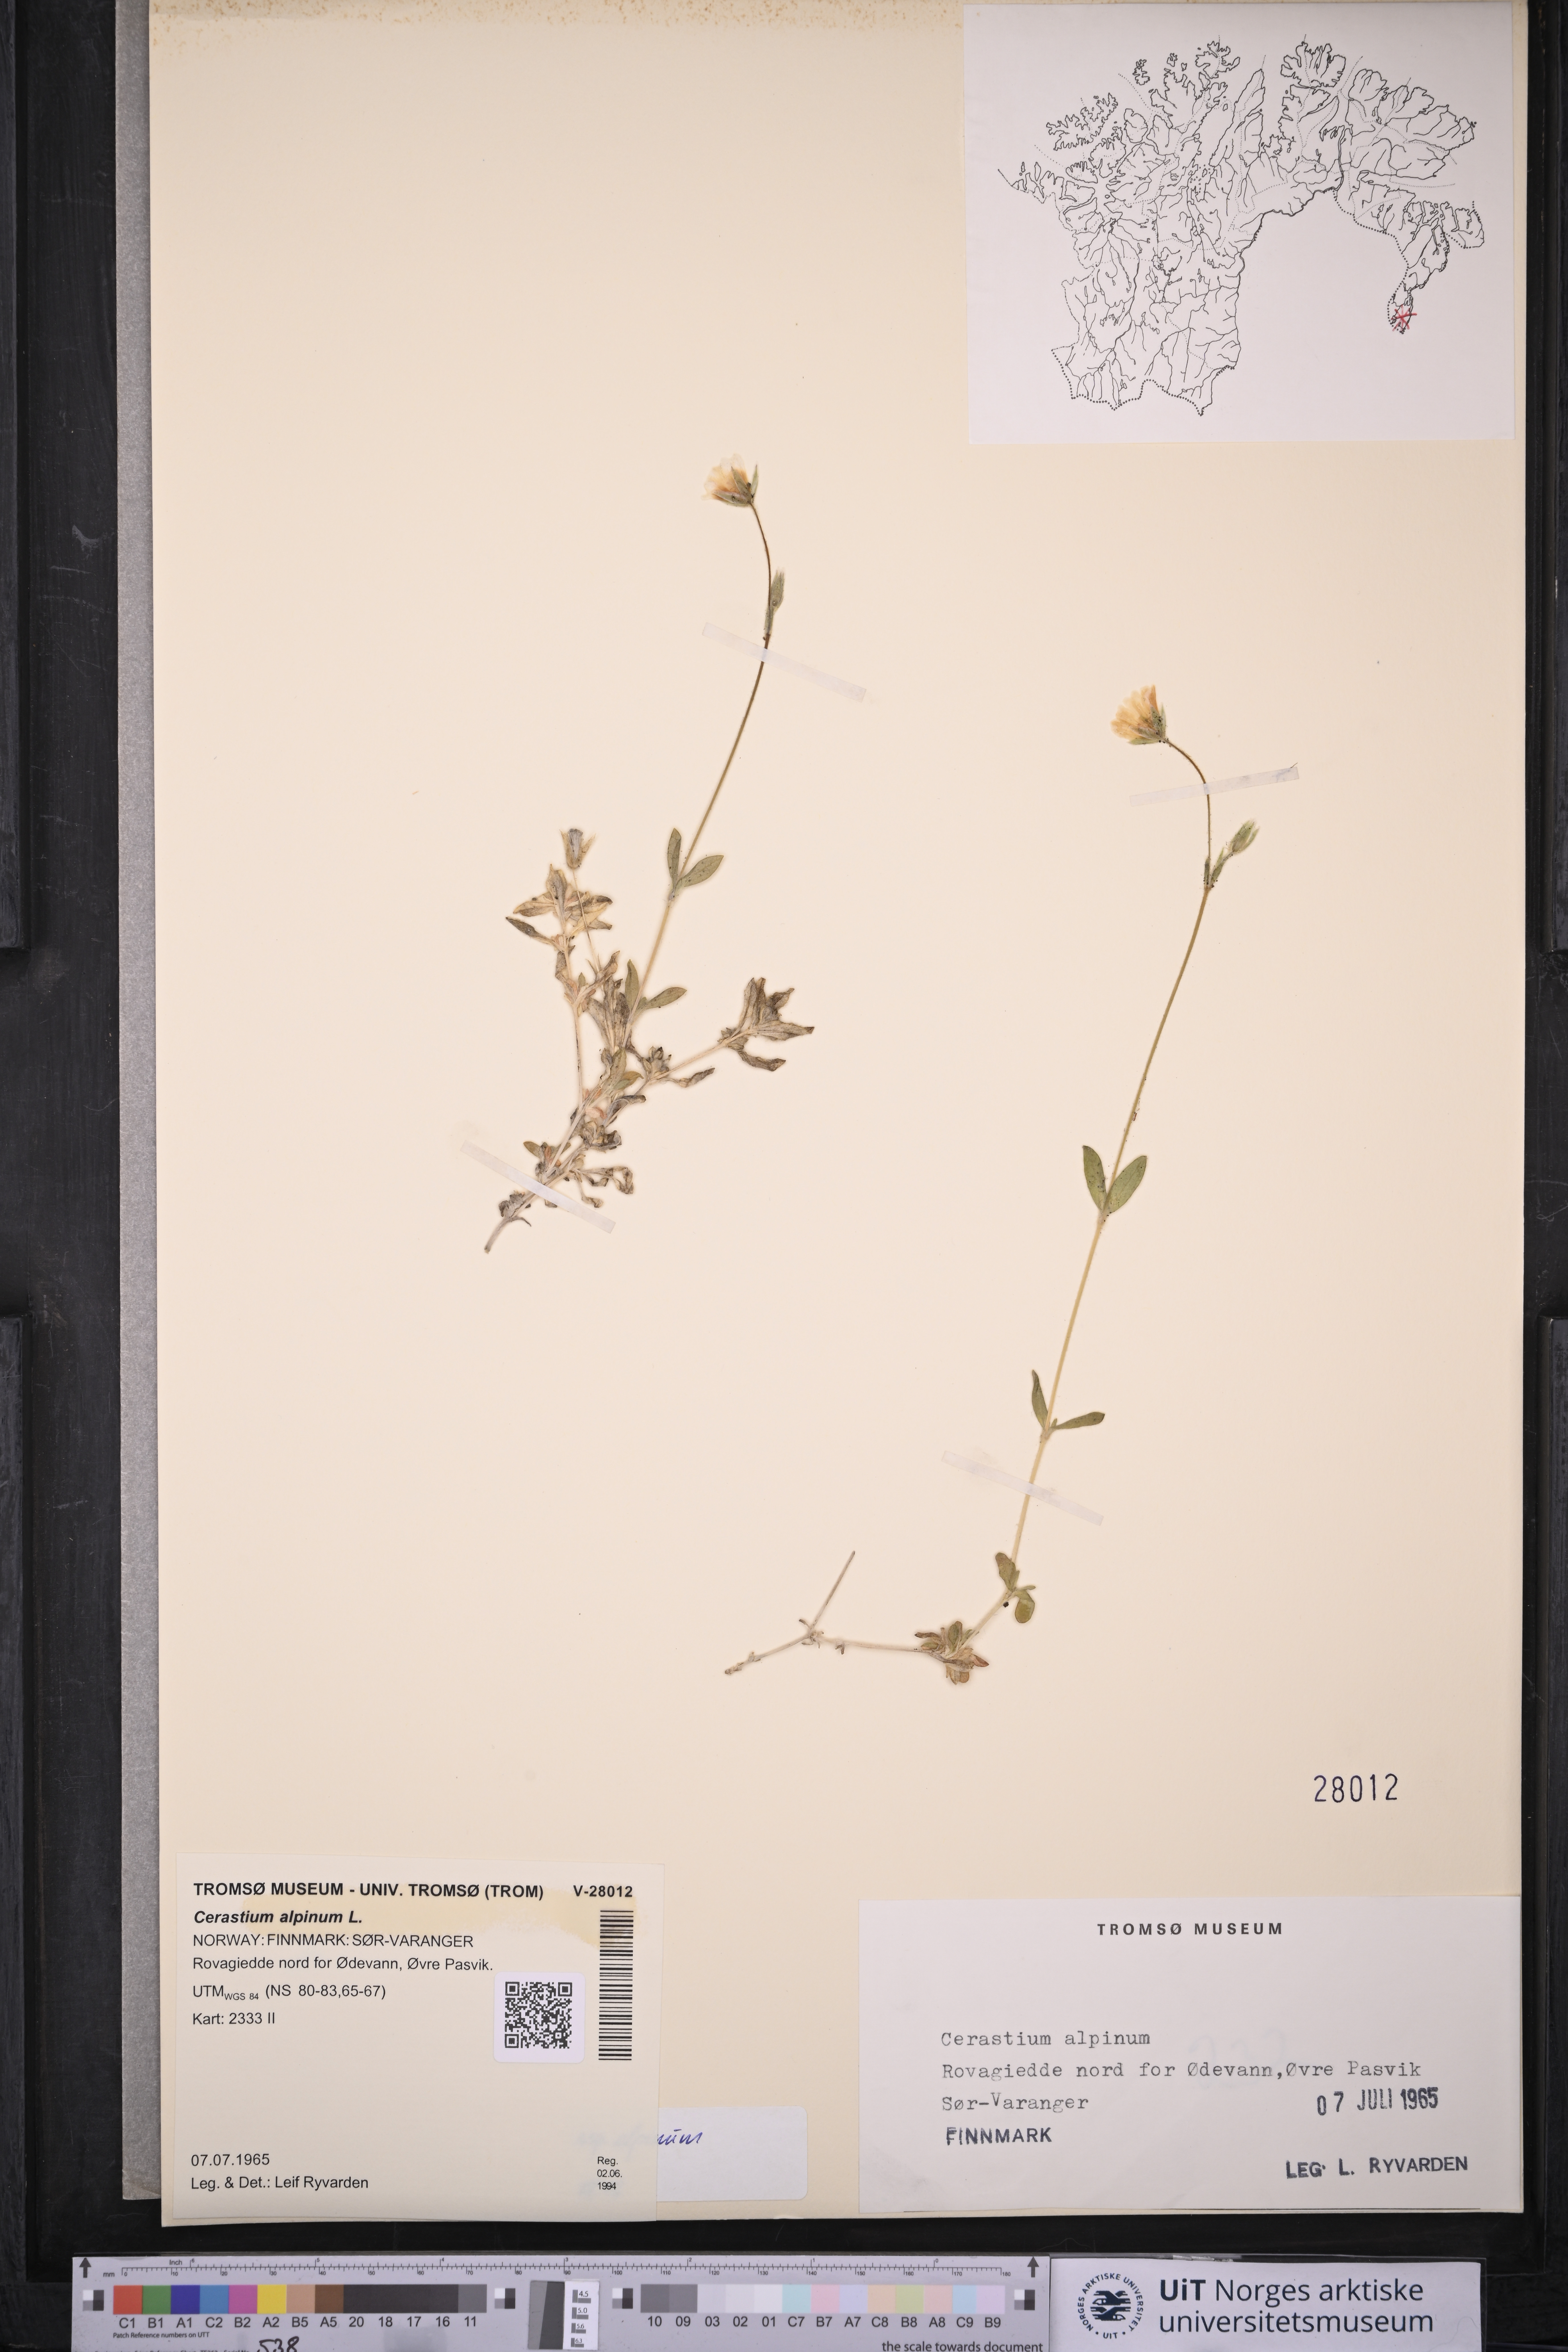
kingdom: Plantae
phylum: Tracheophyta
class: Magnoliopsida
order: Caryophyllales
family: Caryophyllaceae
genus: Cerastium
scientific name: Cerastium alpinum
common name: Alpine mouse-ear
